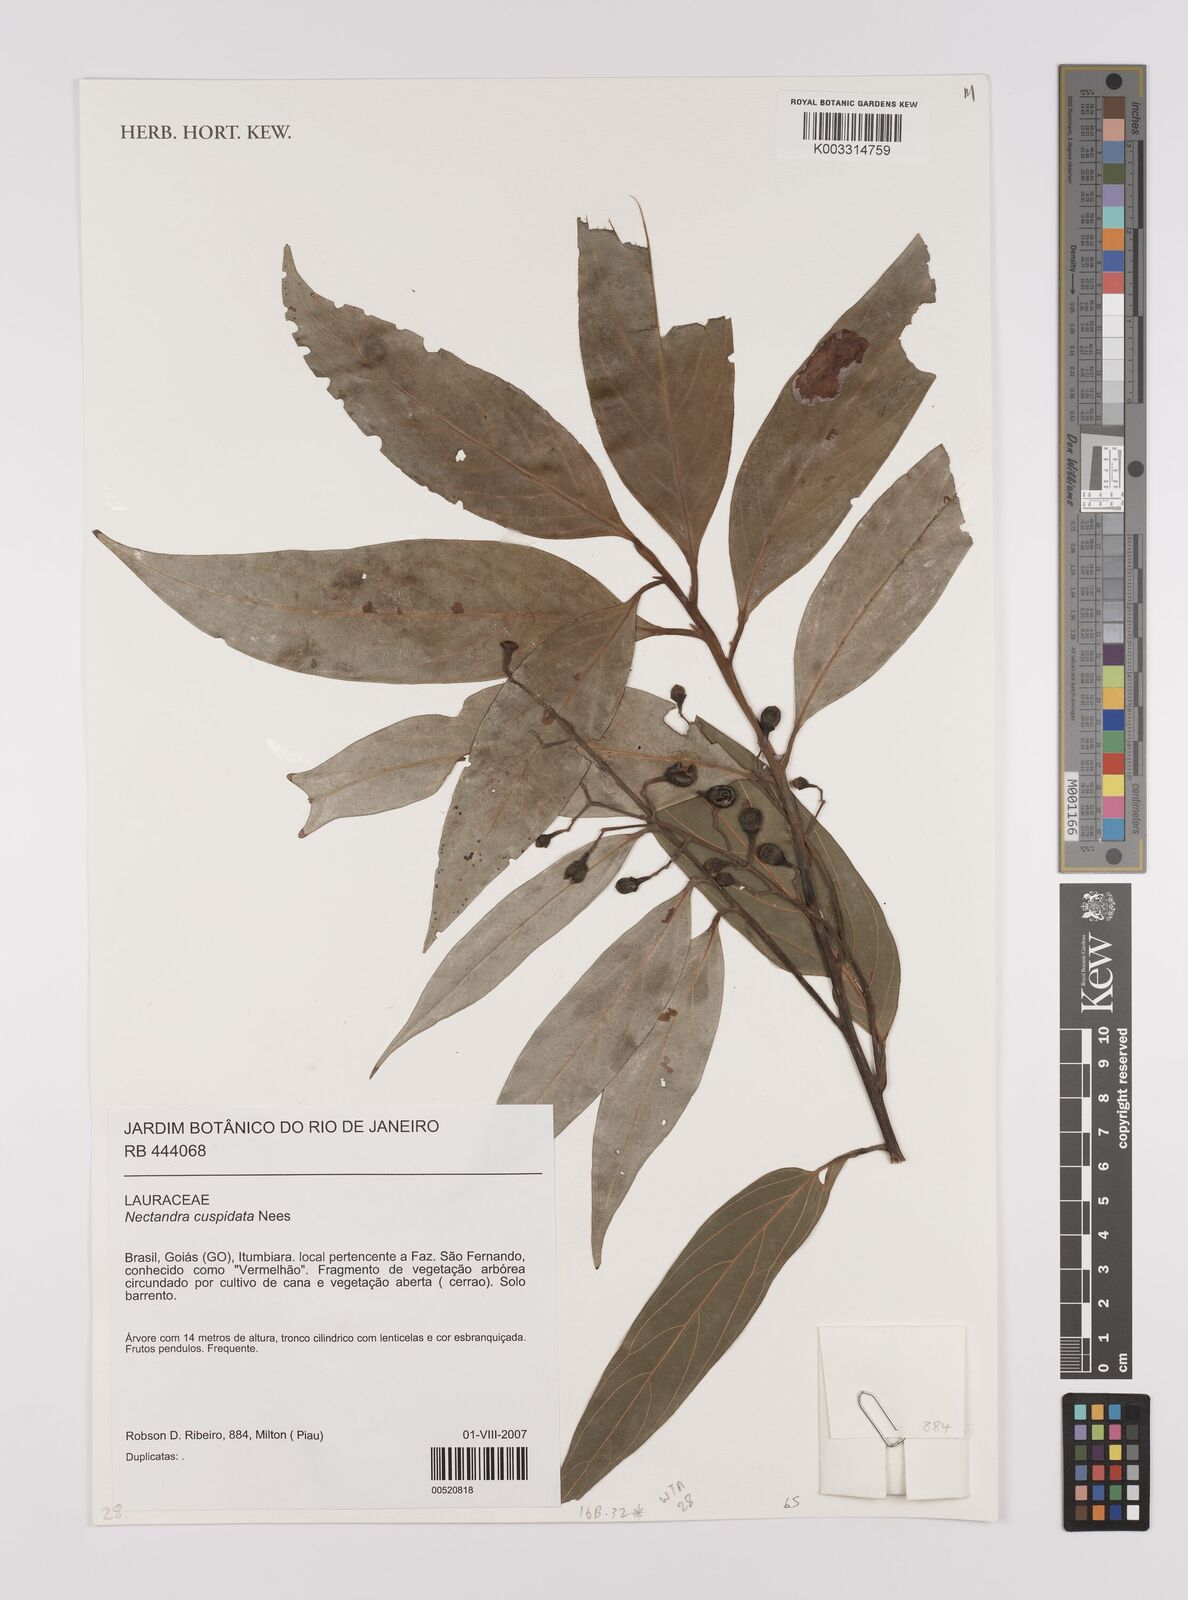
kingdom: Plantae
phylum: Tracheophyta
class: Magnoliopsida
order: Laurales
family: Lauraceae
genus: Nectandra
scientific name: Nectandra cuspidata
